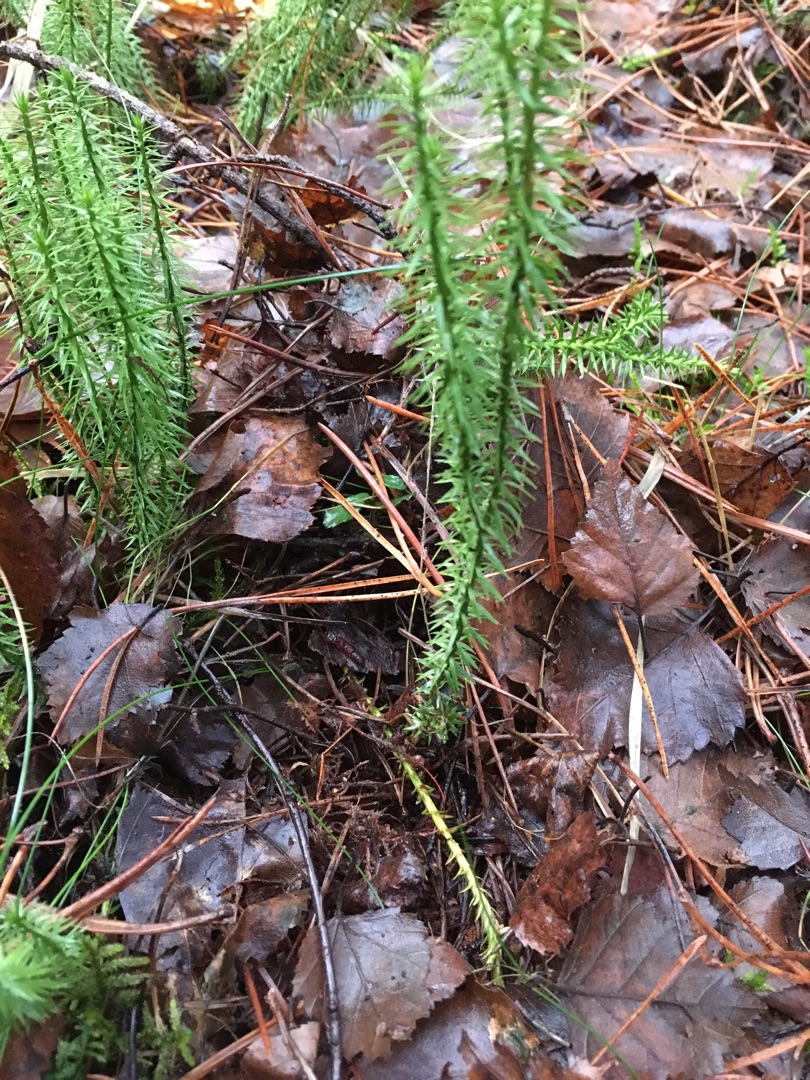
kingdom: Plantae
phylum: Tracheophyta
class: Lycopodiopsida
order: Lycopodiales
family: Lycopodiaceae
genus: Spinulum
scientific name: Spinulum annotinum
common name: Femradet ulvefod
